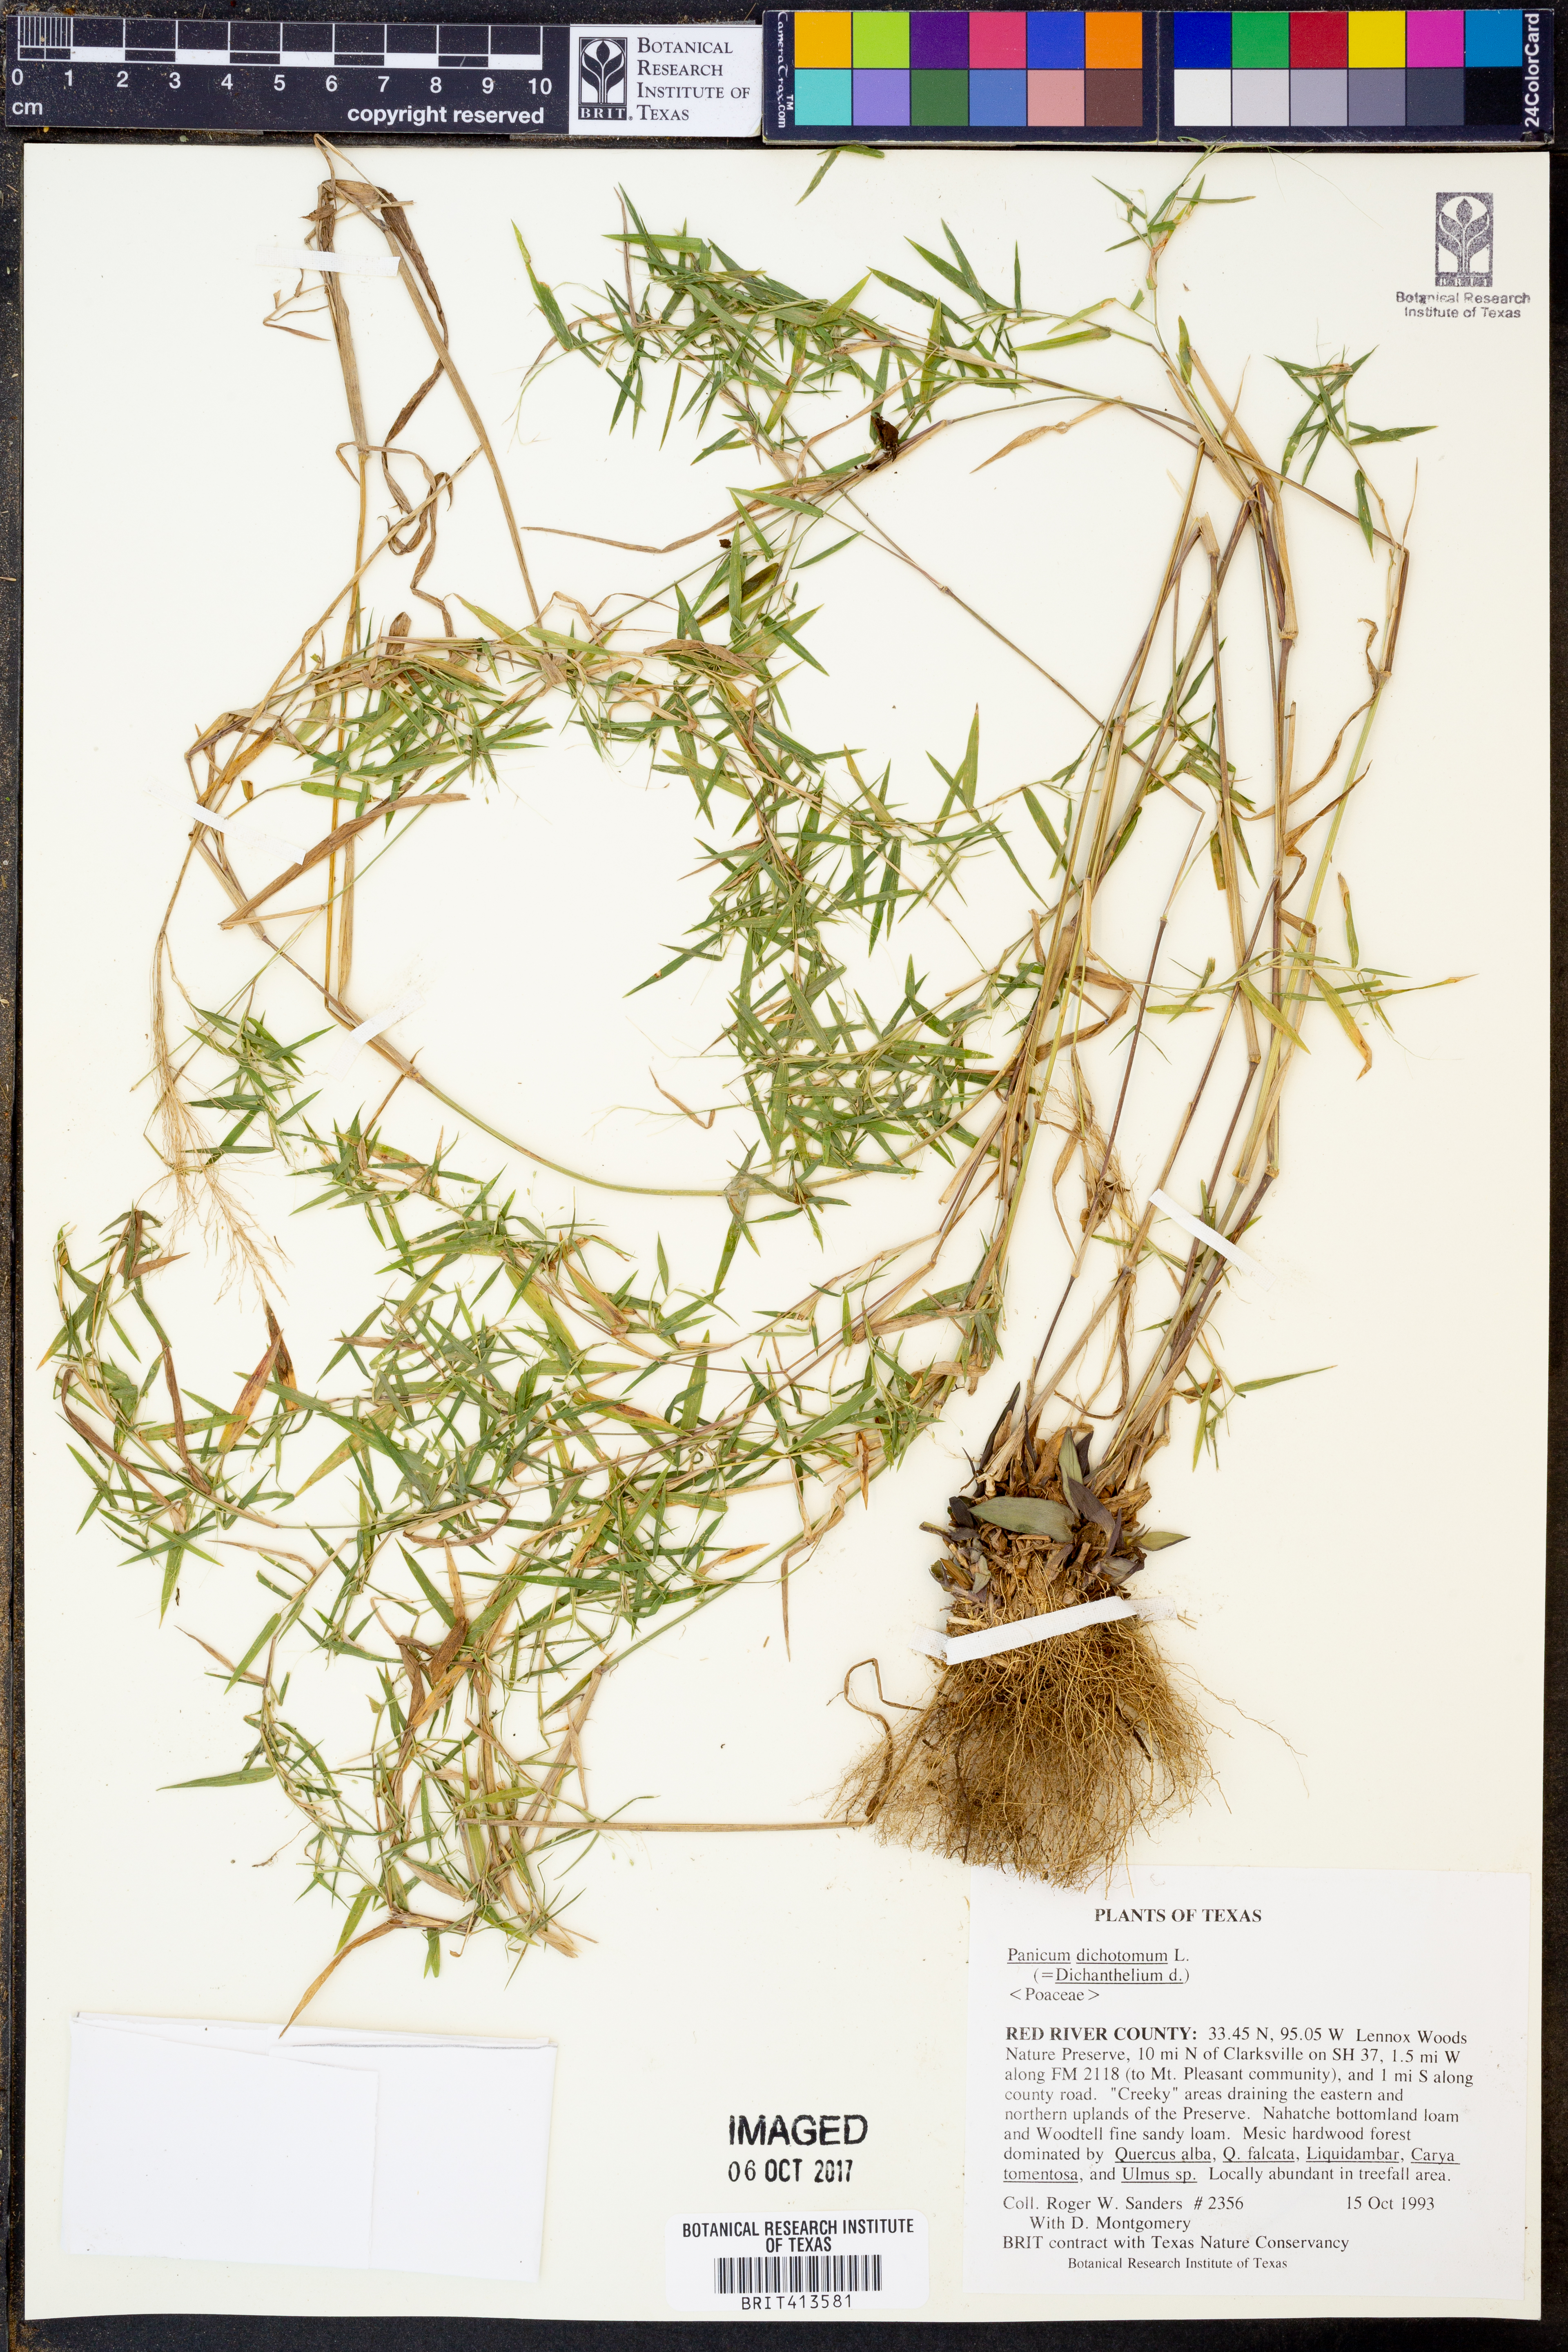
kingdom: Plantae
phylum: Tracheophyta
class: Liliopsida
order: Poales
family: Poaceae
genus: Dichanthelium
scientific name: Dichanthelium dichotomum
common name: Cypress panicgrass
